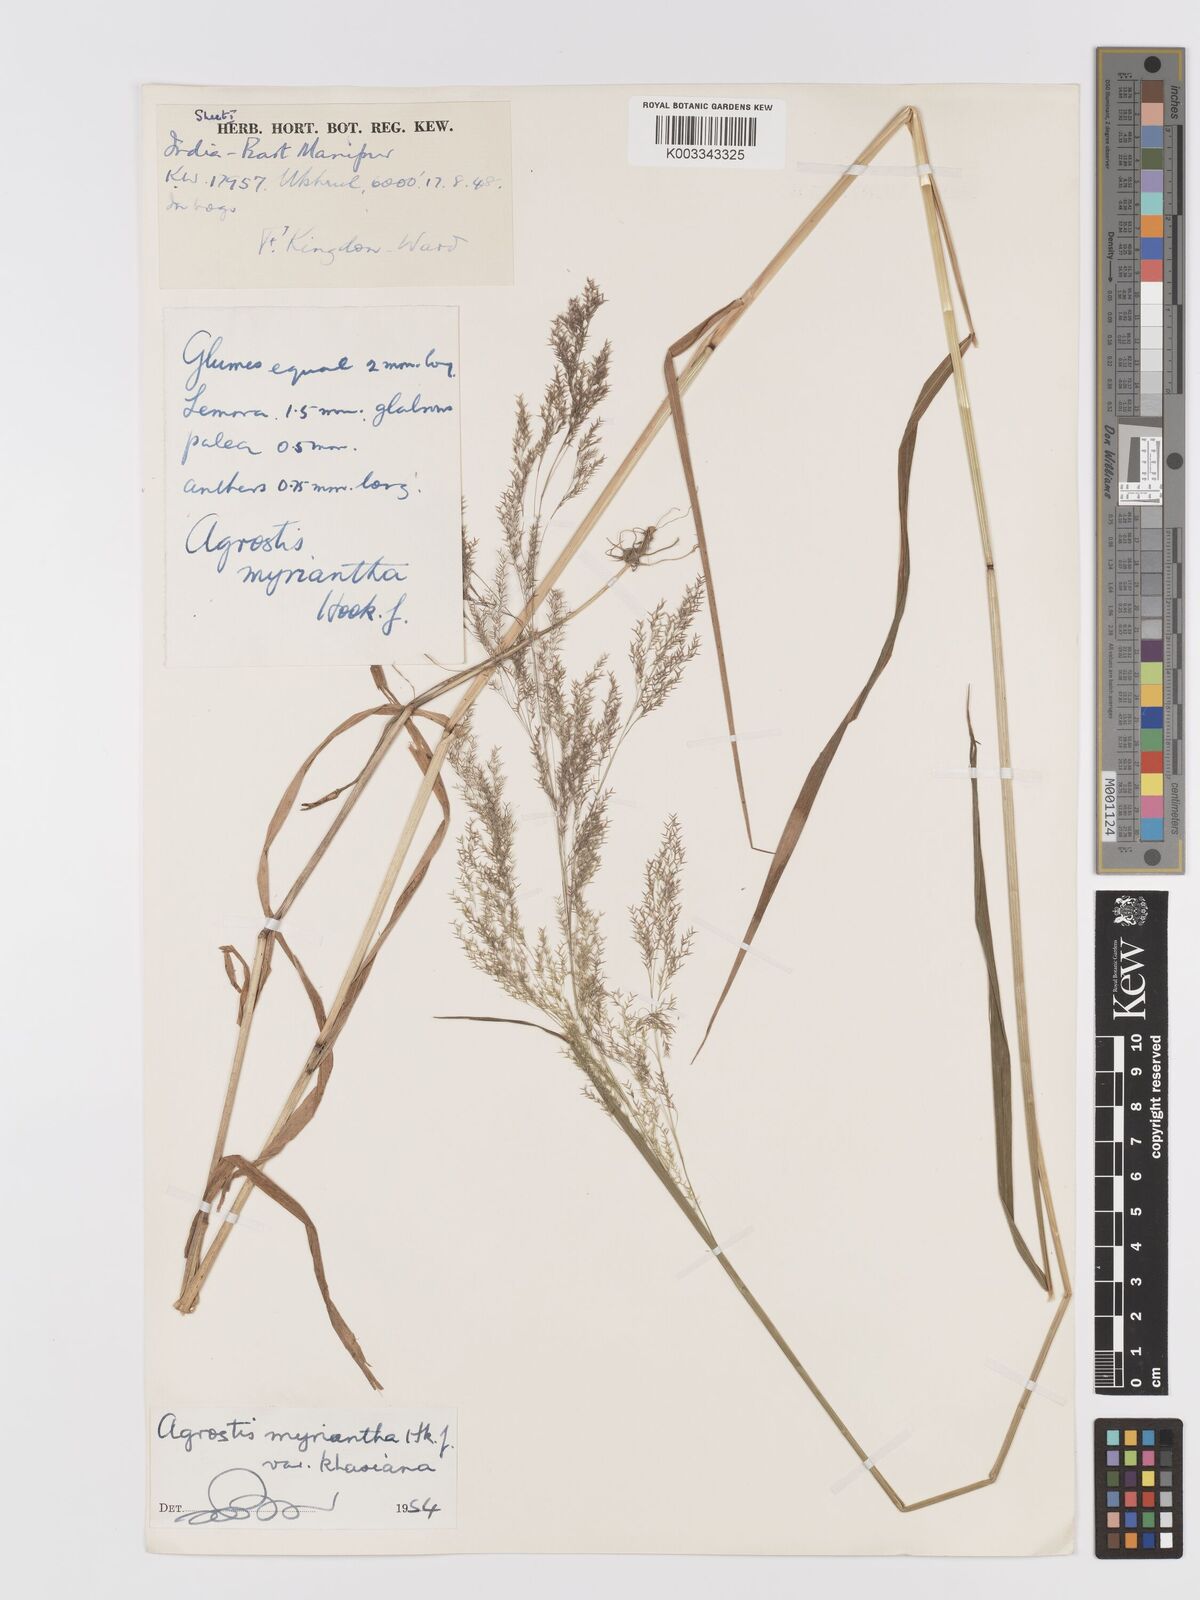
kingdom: Plantae
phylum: Tracheophyta
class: Liliopsida
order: Poales
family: Poaceae
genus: Agrostis
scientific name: Agrostis micrantha
